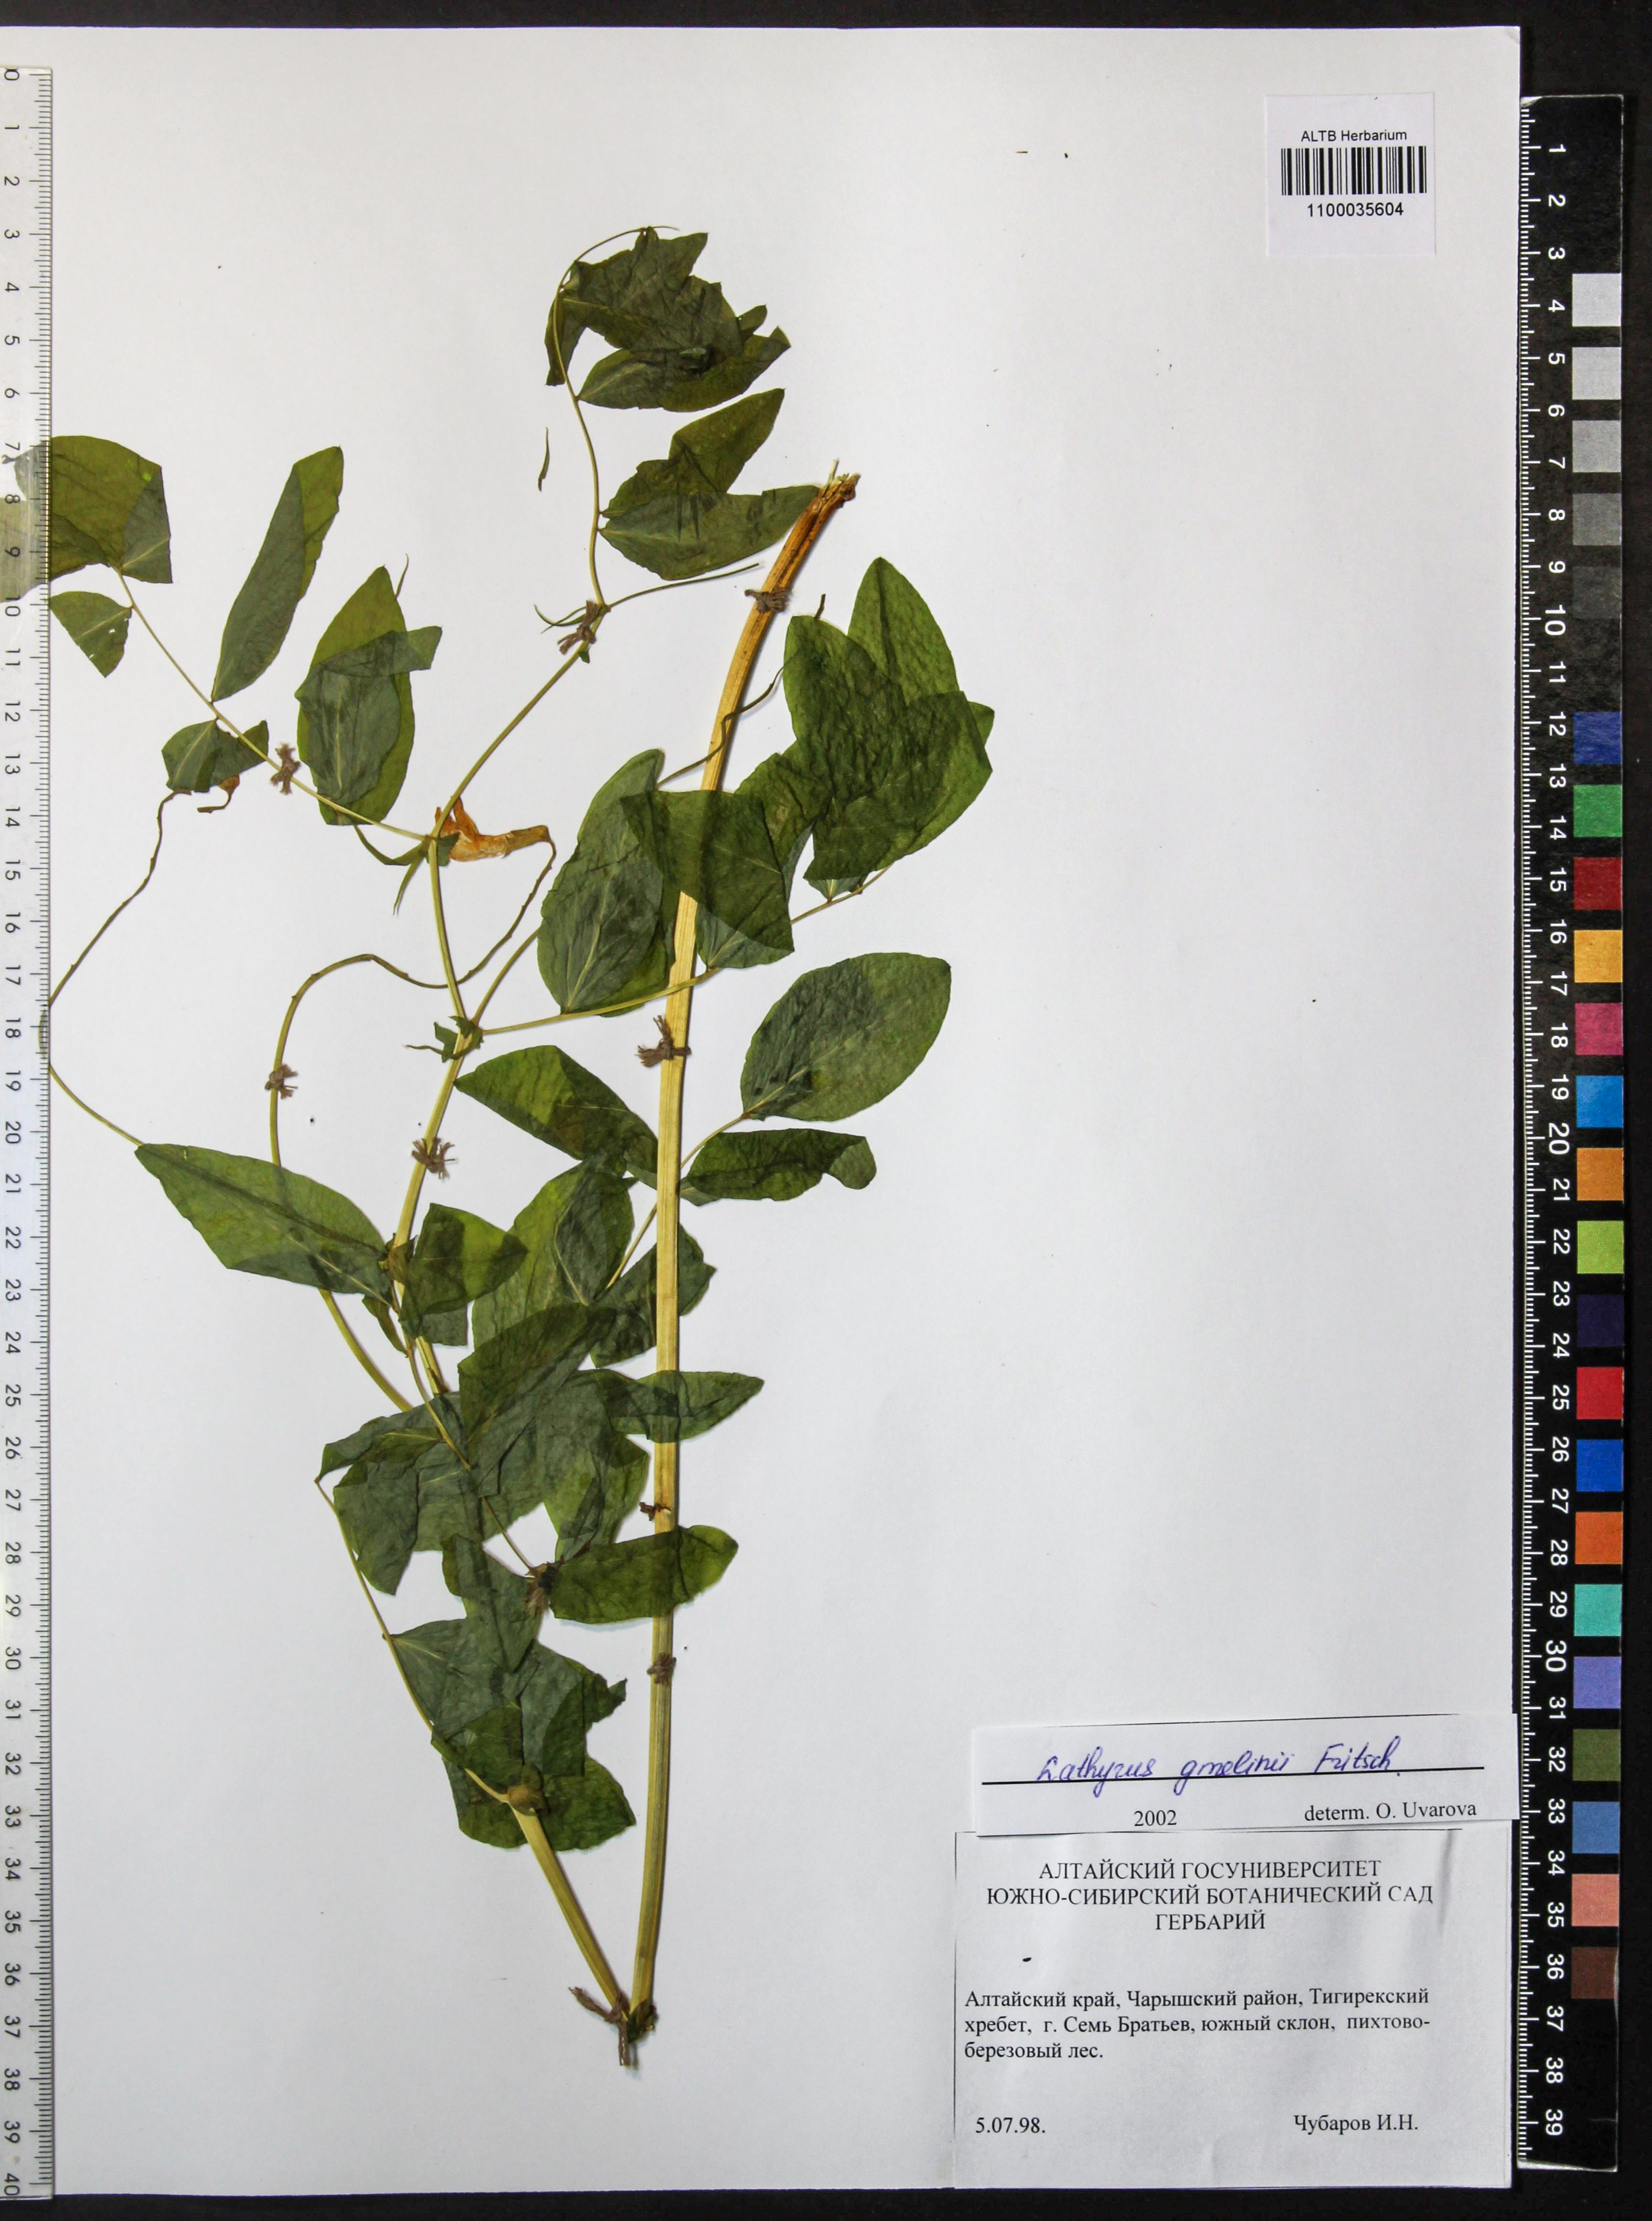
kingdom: Plantae
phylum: Tracheophyta
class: Magnoliopsida
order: Fabales
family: Fabaceae
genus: Lathyrus
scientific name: Lathyrus gmelinii
